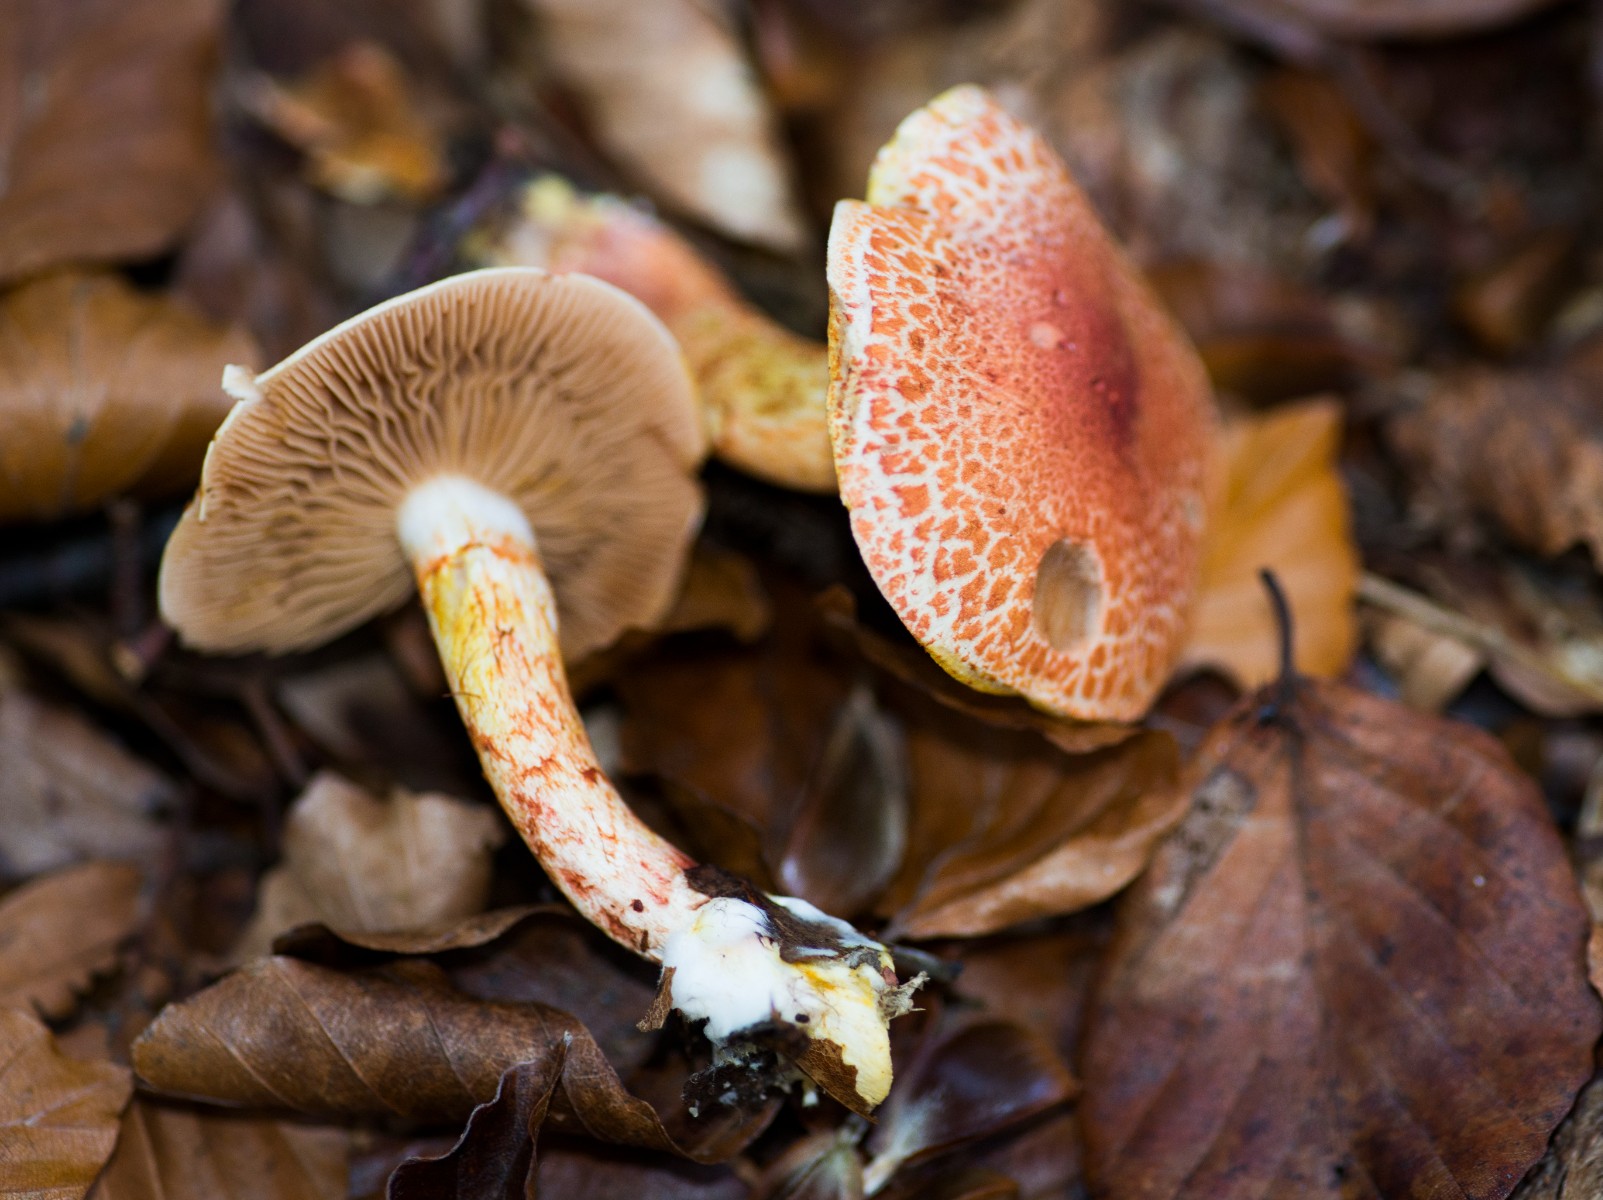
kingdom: Fungi
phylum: Basidiomycota
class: Agaricomycetes
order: Agaricales
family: Cortinariaceae
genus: Cortinarius
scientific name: Cortinarius bolaris
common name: cinnoberskællet slørhat
